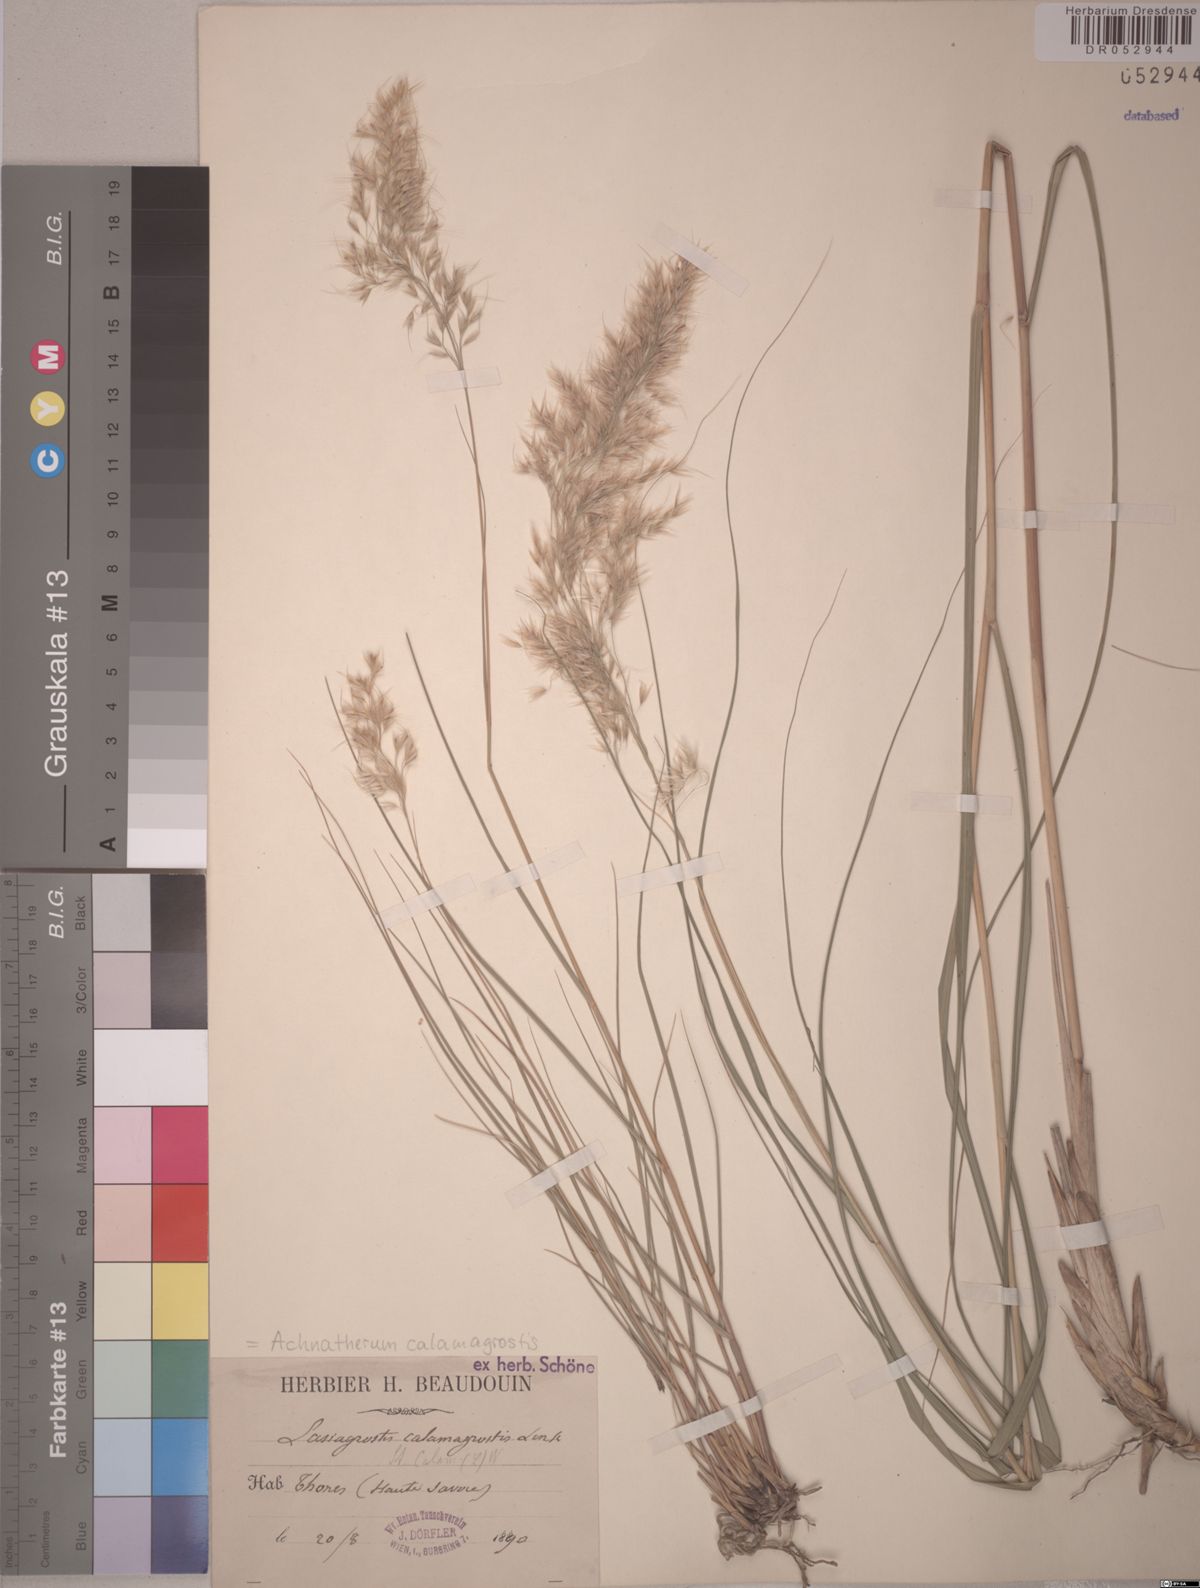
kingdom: Plantae
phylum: Tracheophyta
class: Liliopsida
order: Poales
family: Poaceae
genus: Achnatherum
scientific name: Achnatherum calamagrostis
